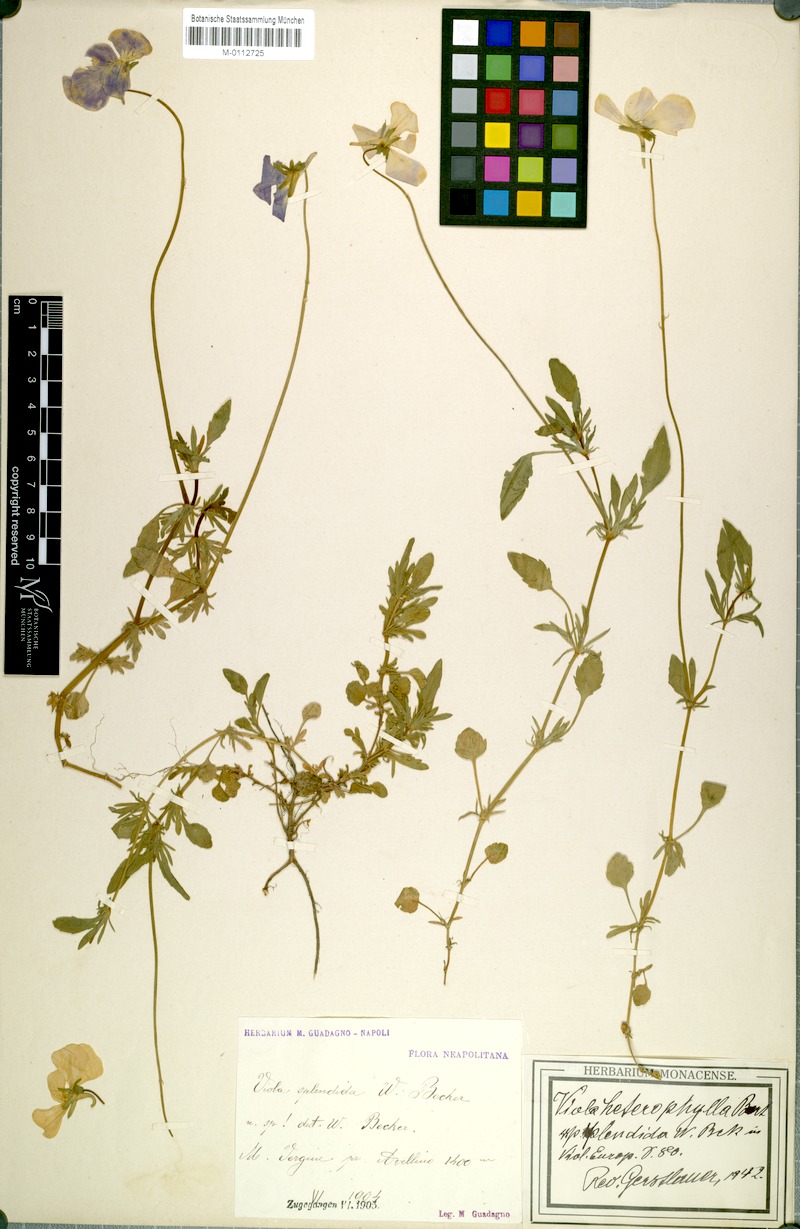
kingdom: Plantae
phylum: Tracheophyta
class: Magnoliopsida
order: Malpighiales
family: Violaceae
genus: Viola
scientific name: Viola aethnensis
